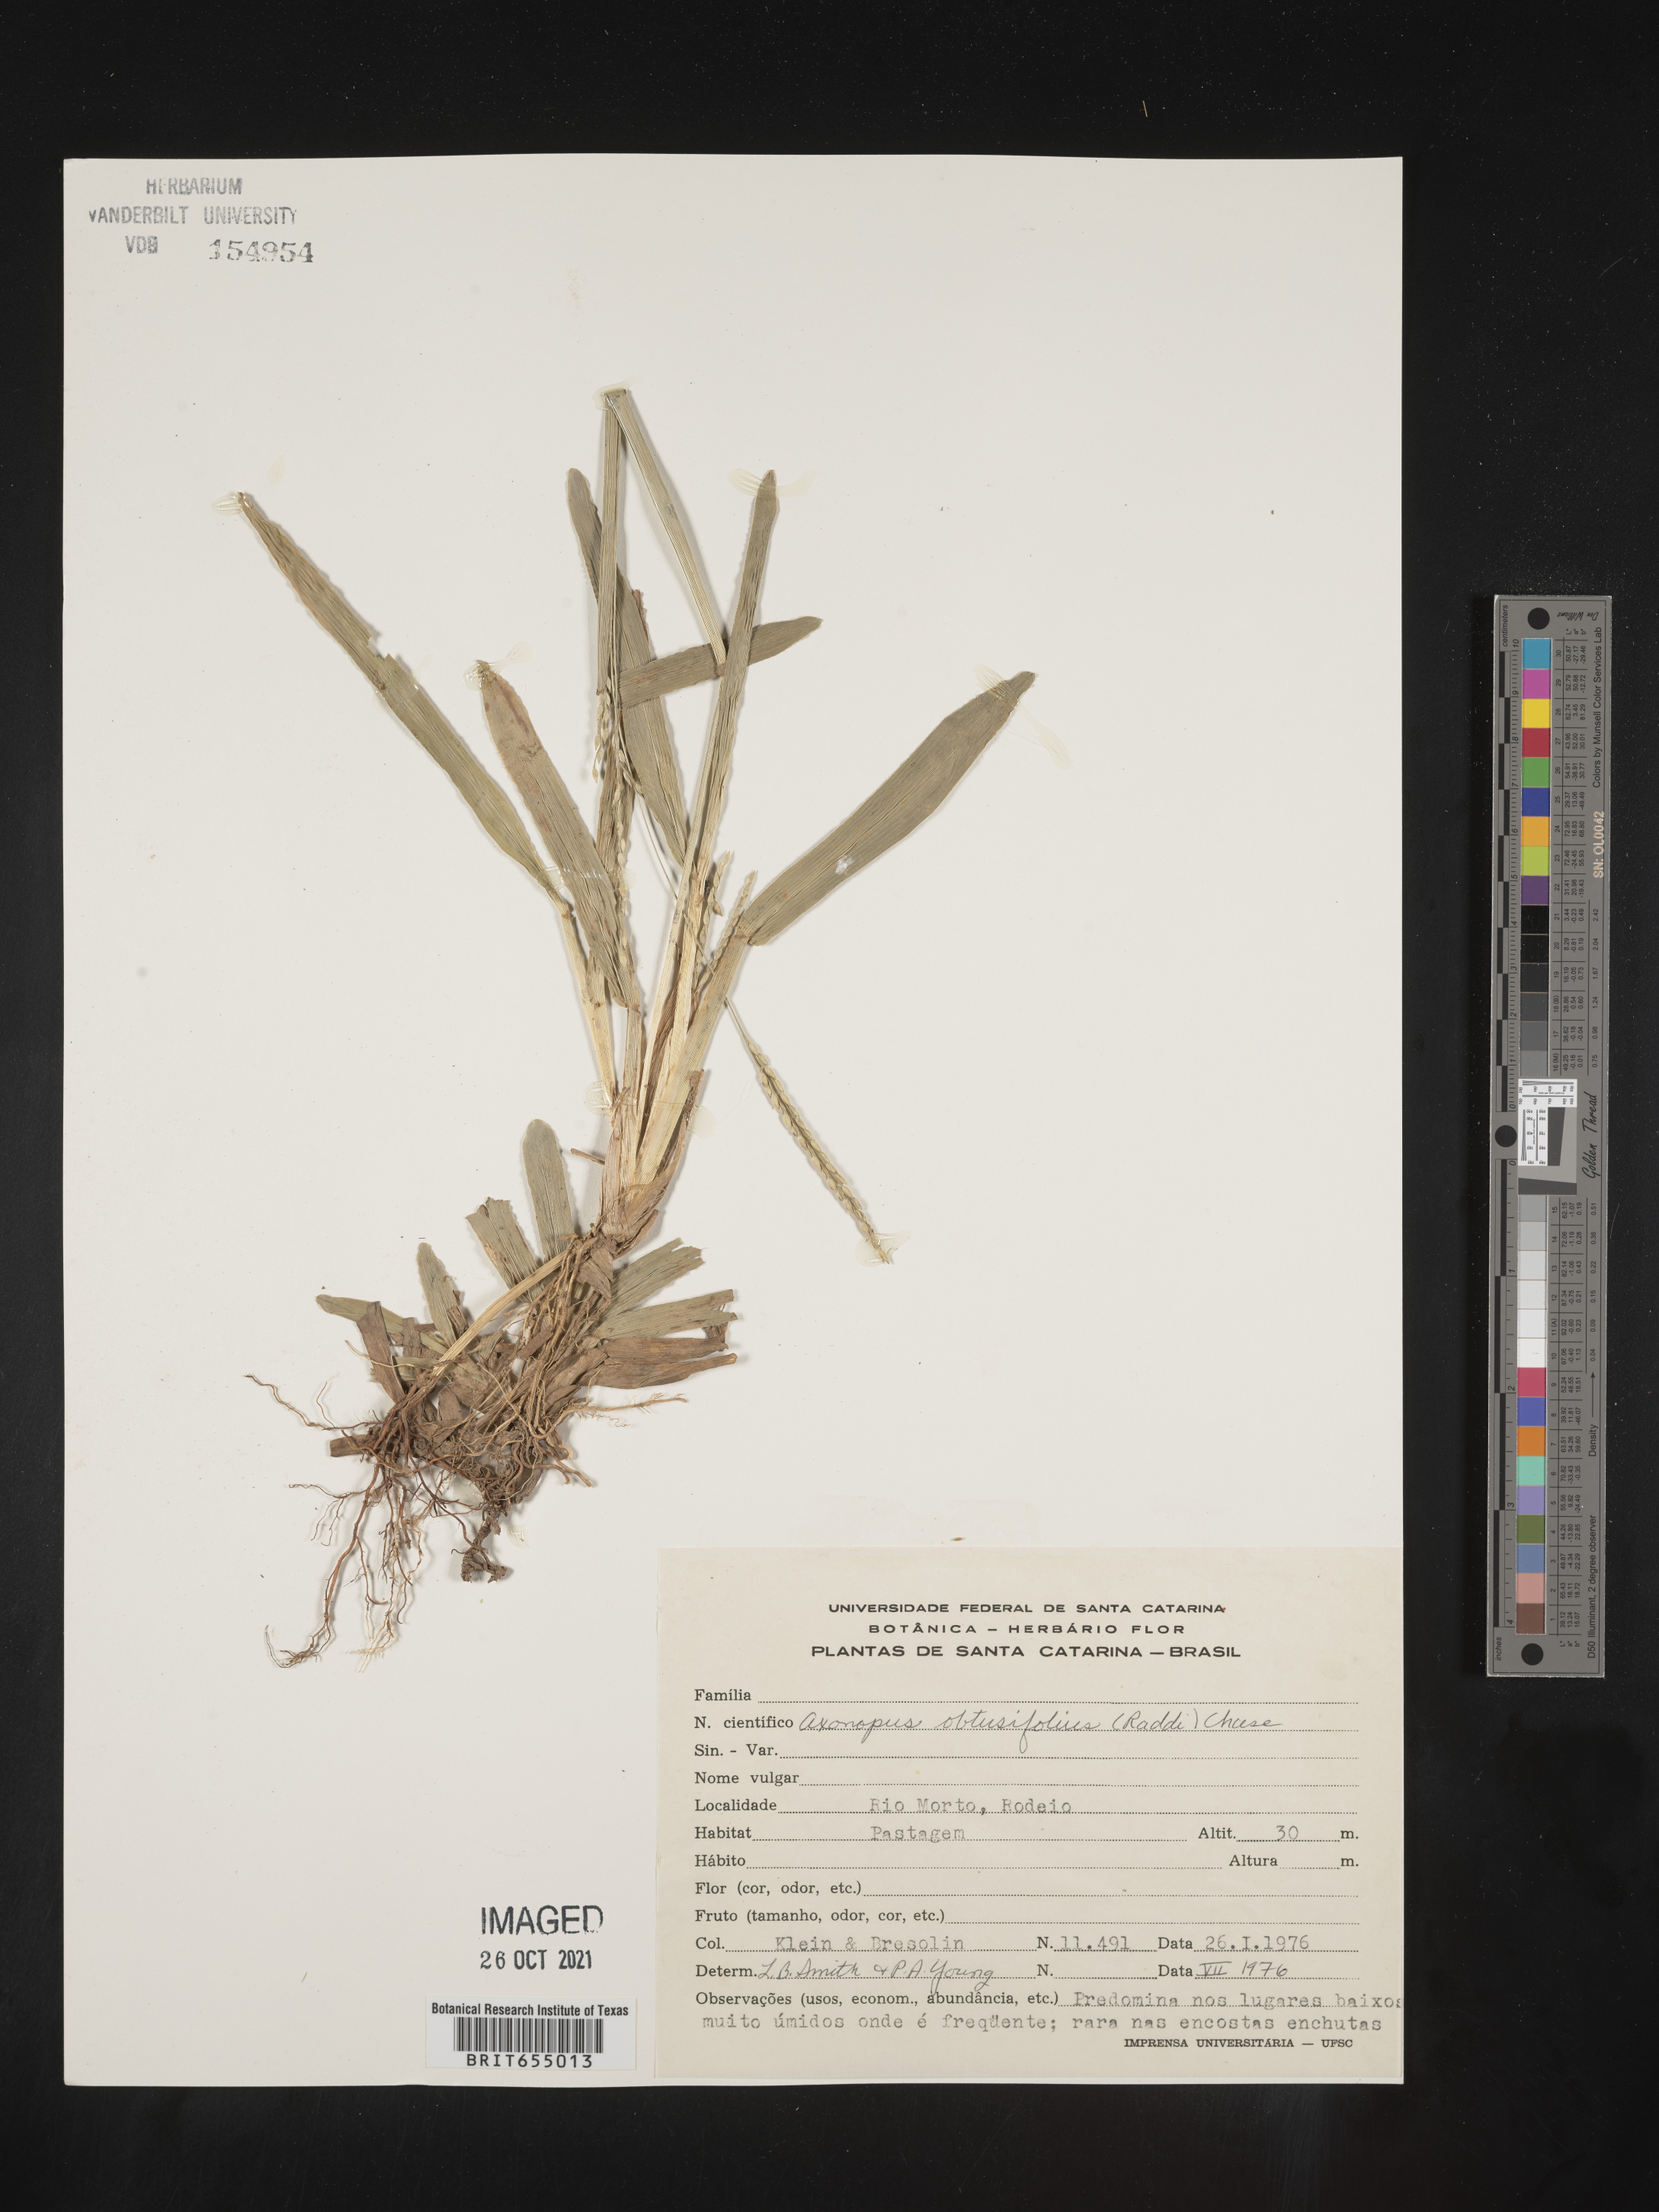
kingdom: Plantae
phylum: Tracheophyta
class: Liliopsida
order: Poales
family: Poaceae
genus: Axonopus
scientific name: Axonopus
